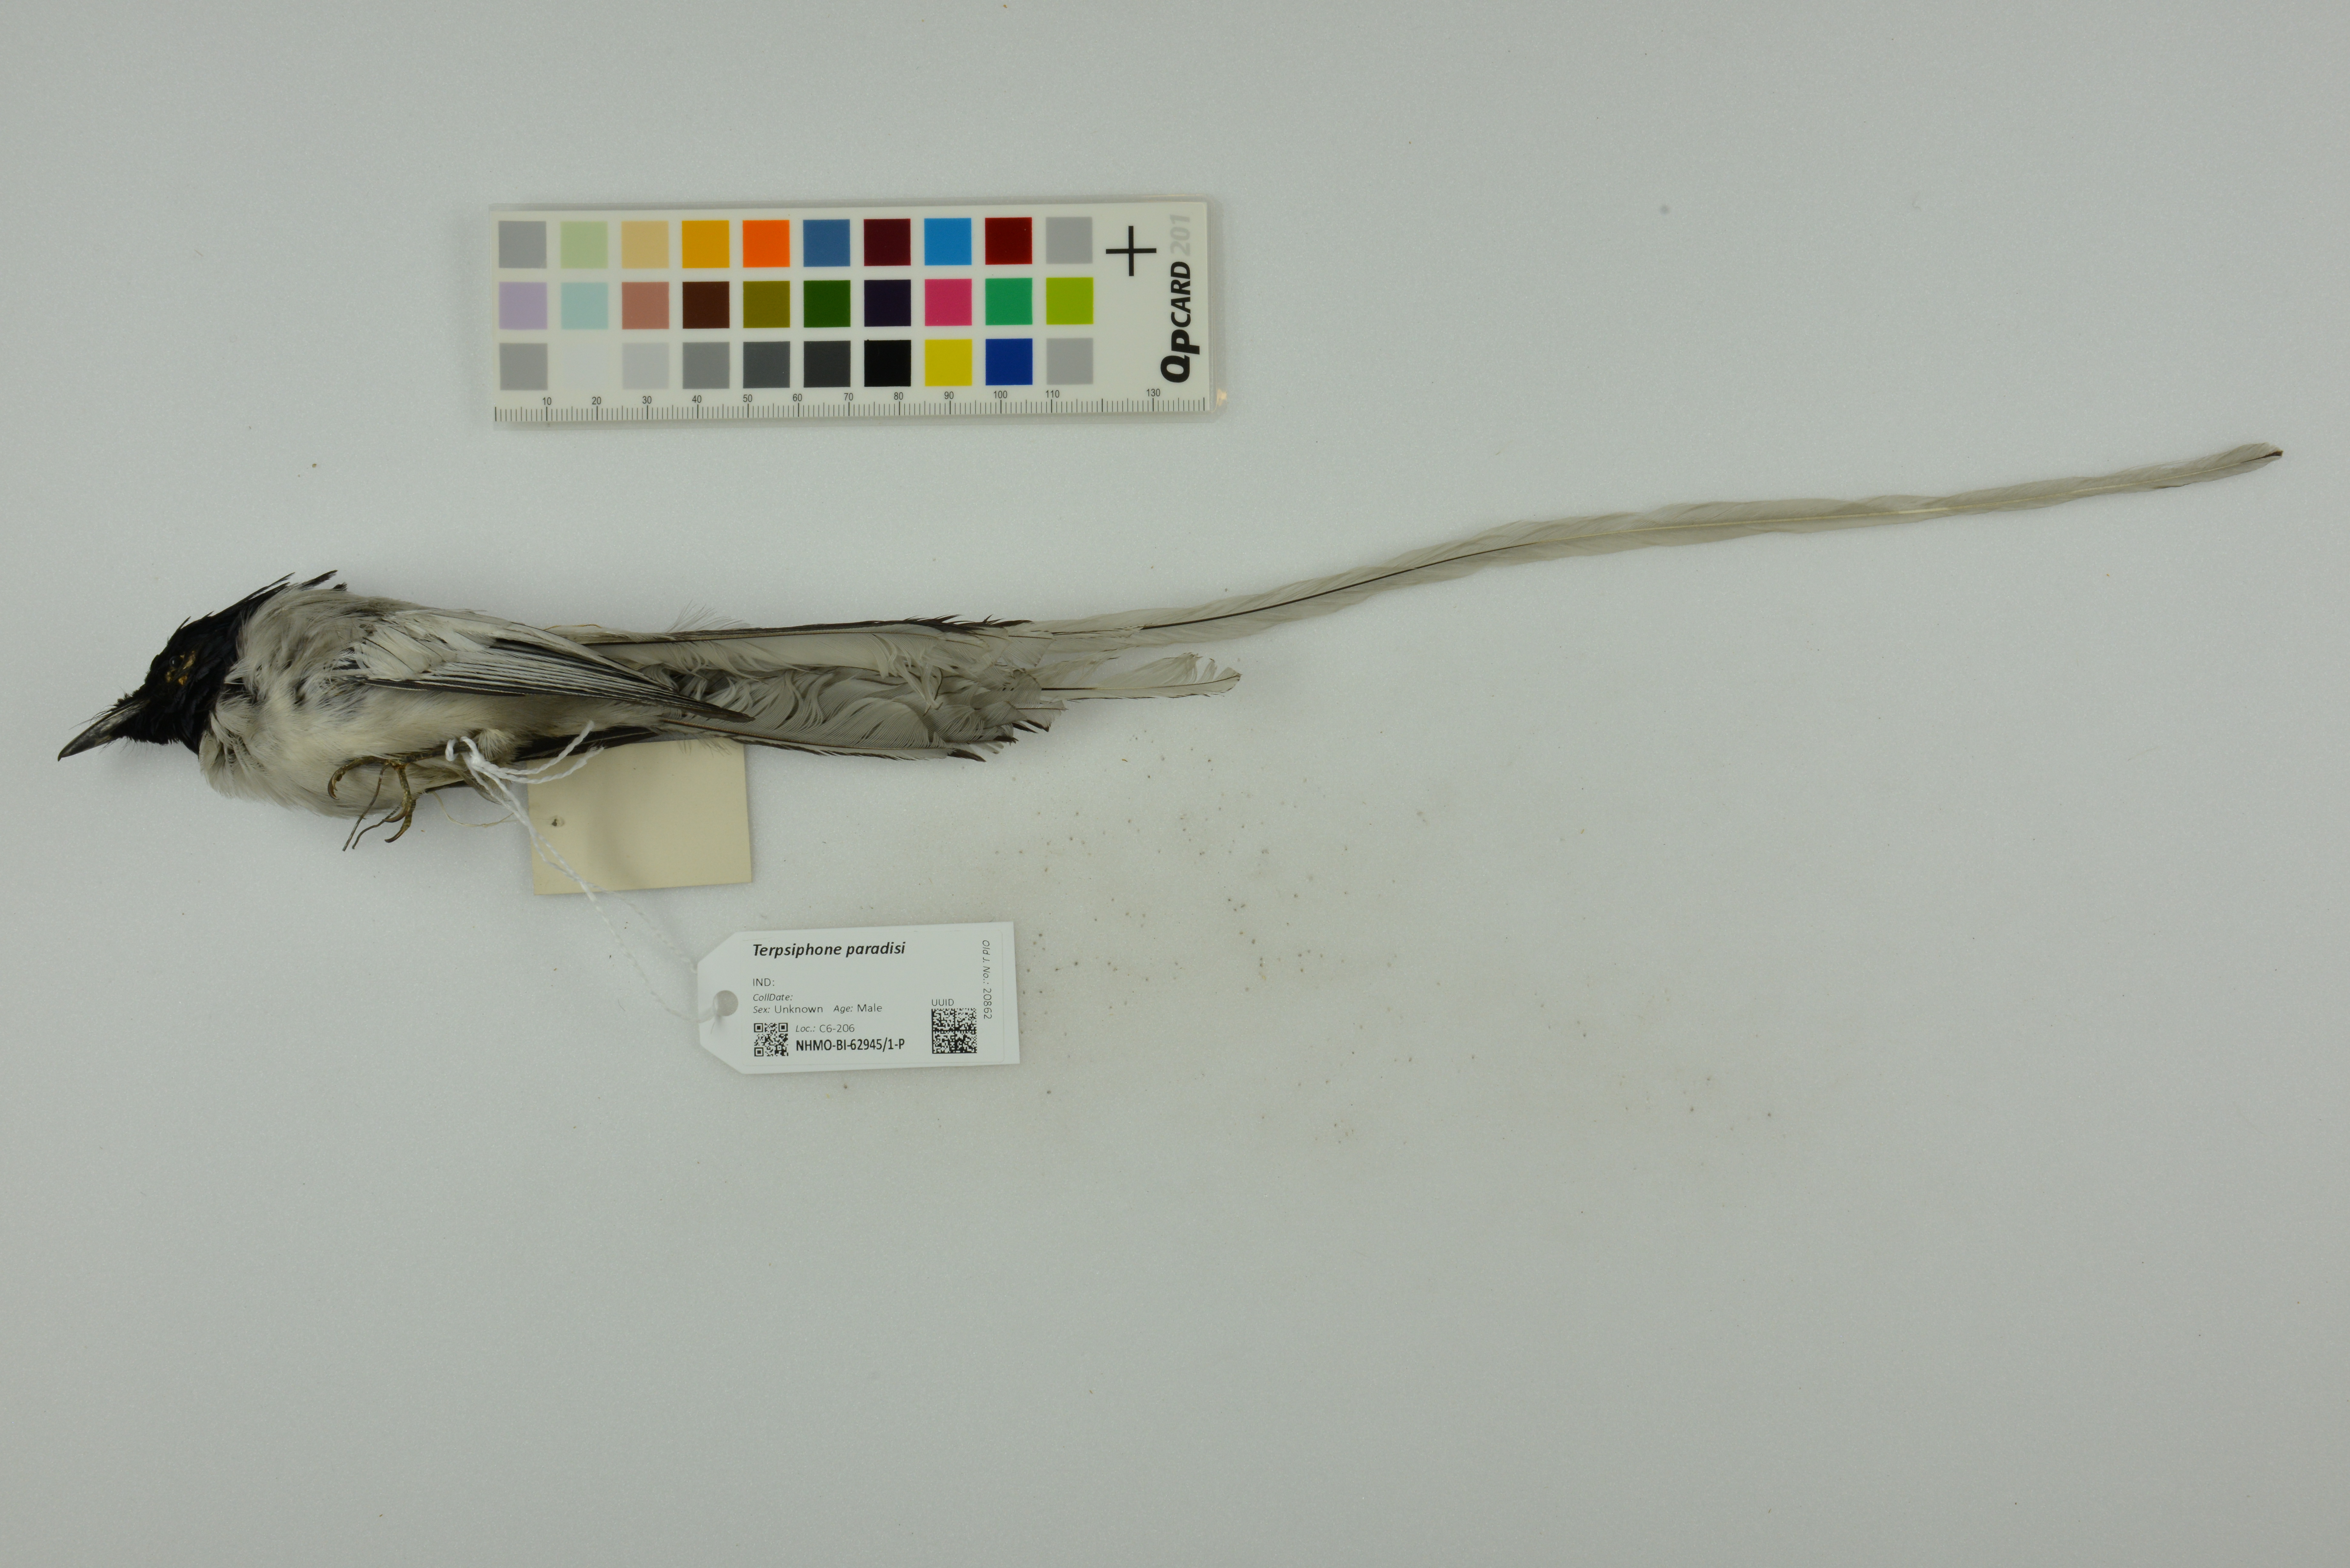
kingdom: Animalia
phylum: Chordata
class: Aves
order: Passeriformes
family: Monarchidae
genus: Terpsiphone
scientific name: Terpsiphone paradisi
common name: Indian paradise flycatcher
